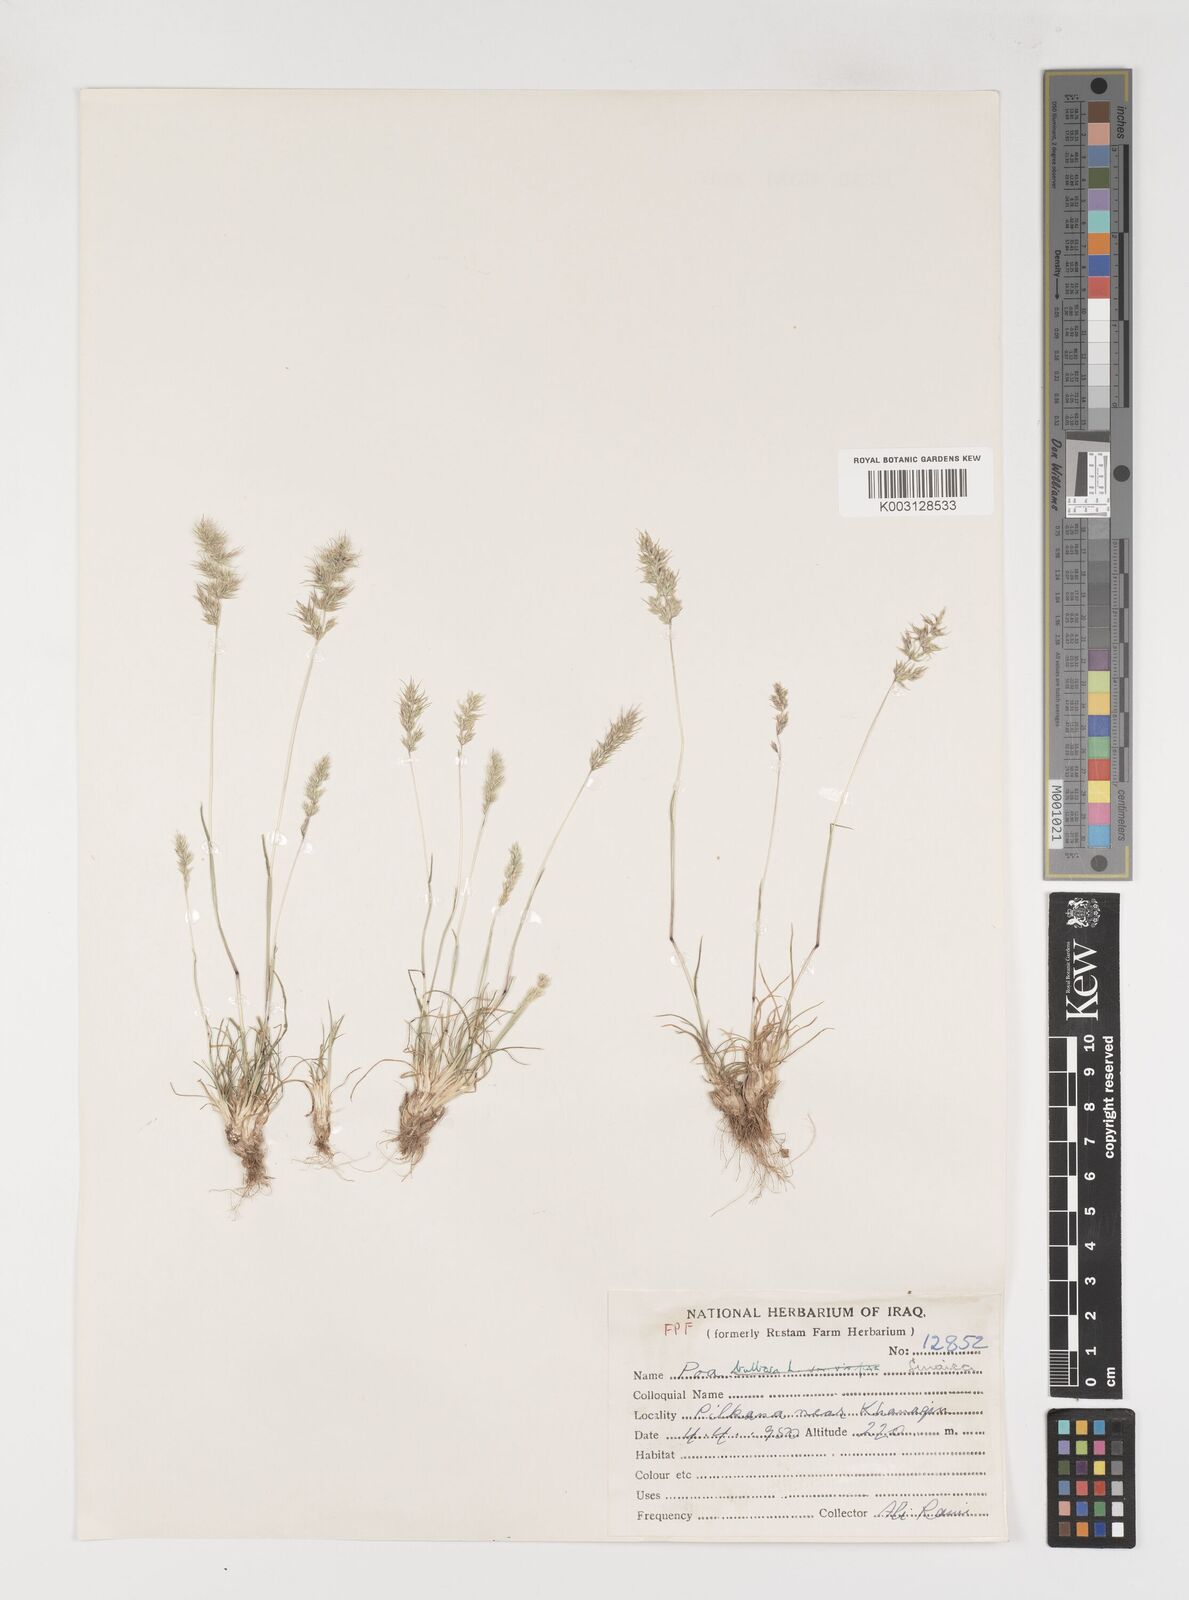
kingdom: Plantae
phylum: Tracheophyta
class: Liliopsida
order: Poales
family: Poaceae
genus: Poa
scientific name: Poa sinaica
